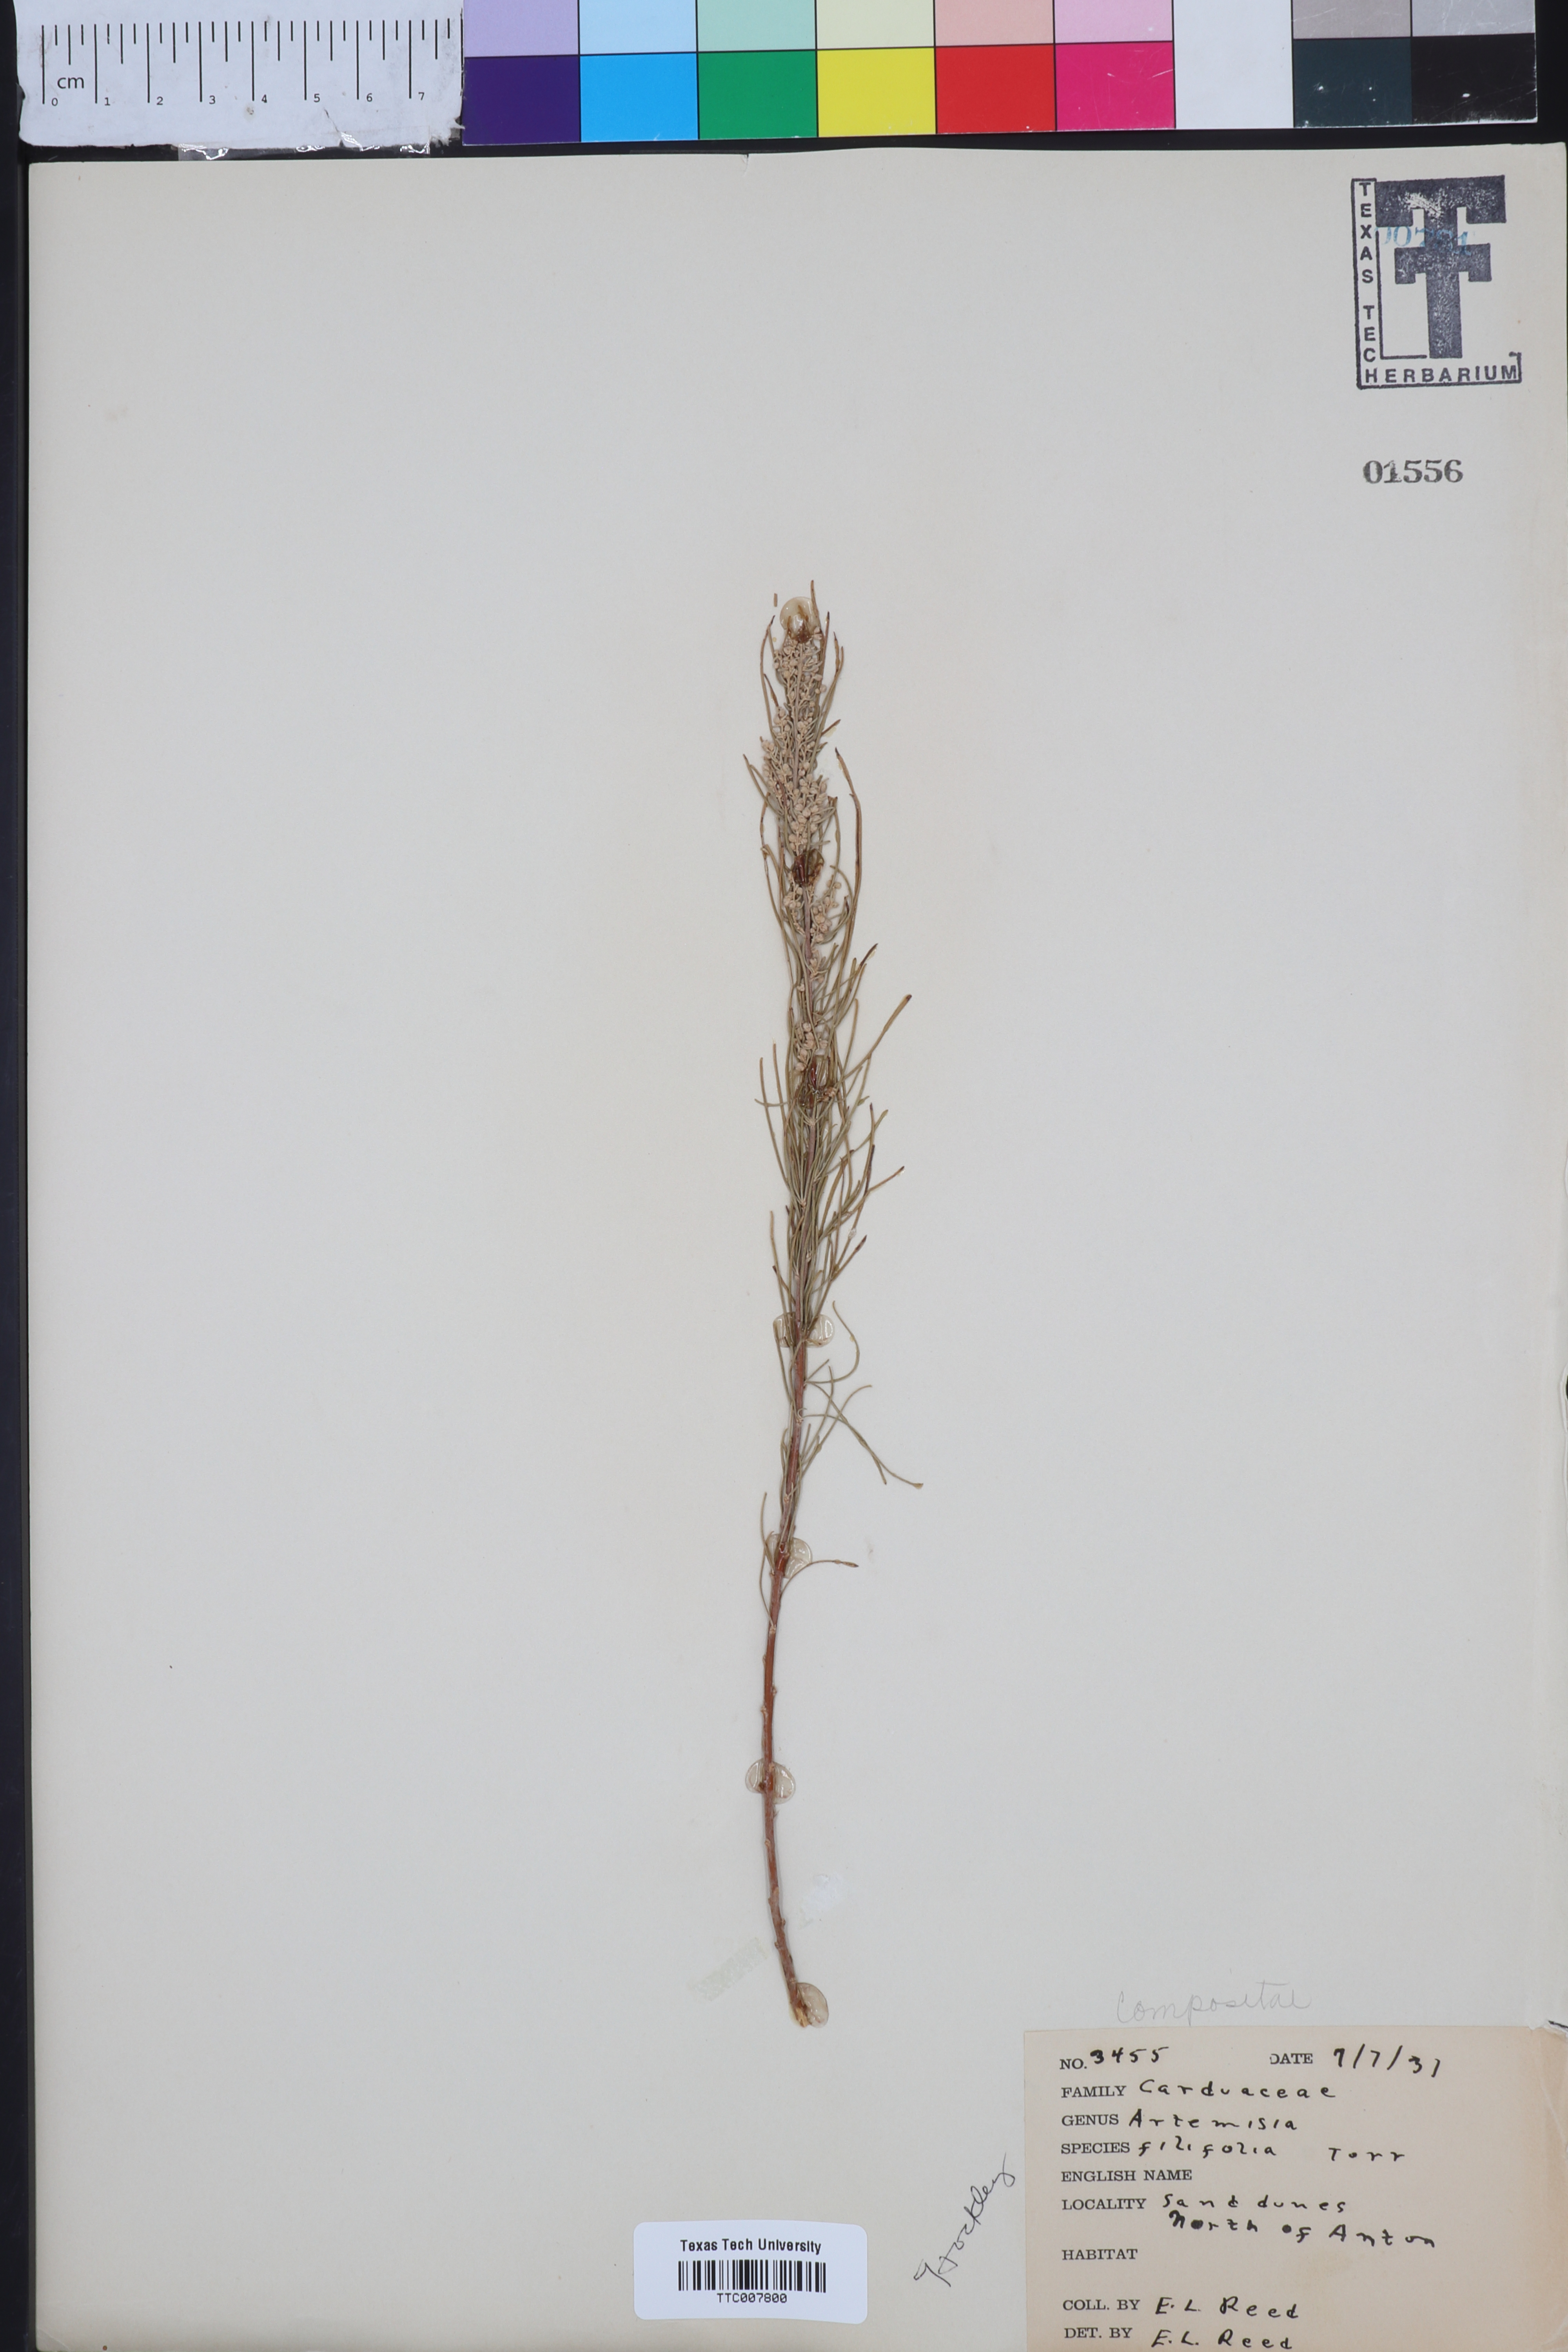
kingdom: Plantae
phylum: Tracheophyta
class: Magnoliopsida
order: Asterales
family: Asteraceae
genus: Artemisia
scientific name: Artemisia filifolia
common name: Sand-sage
